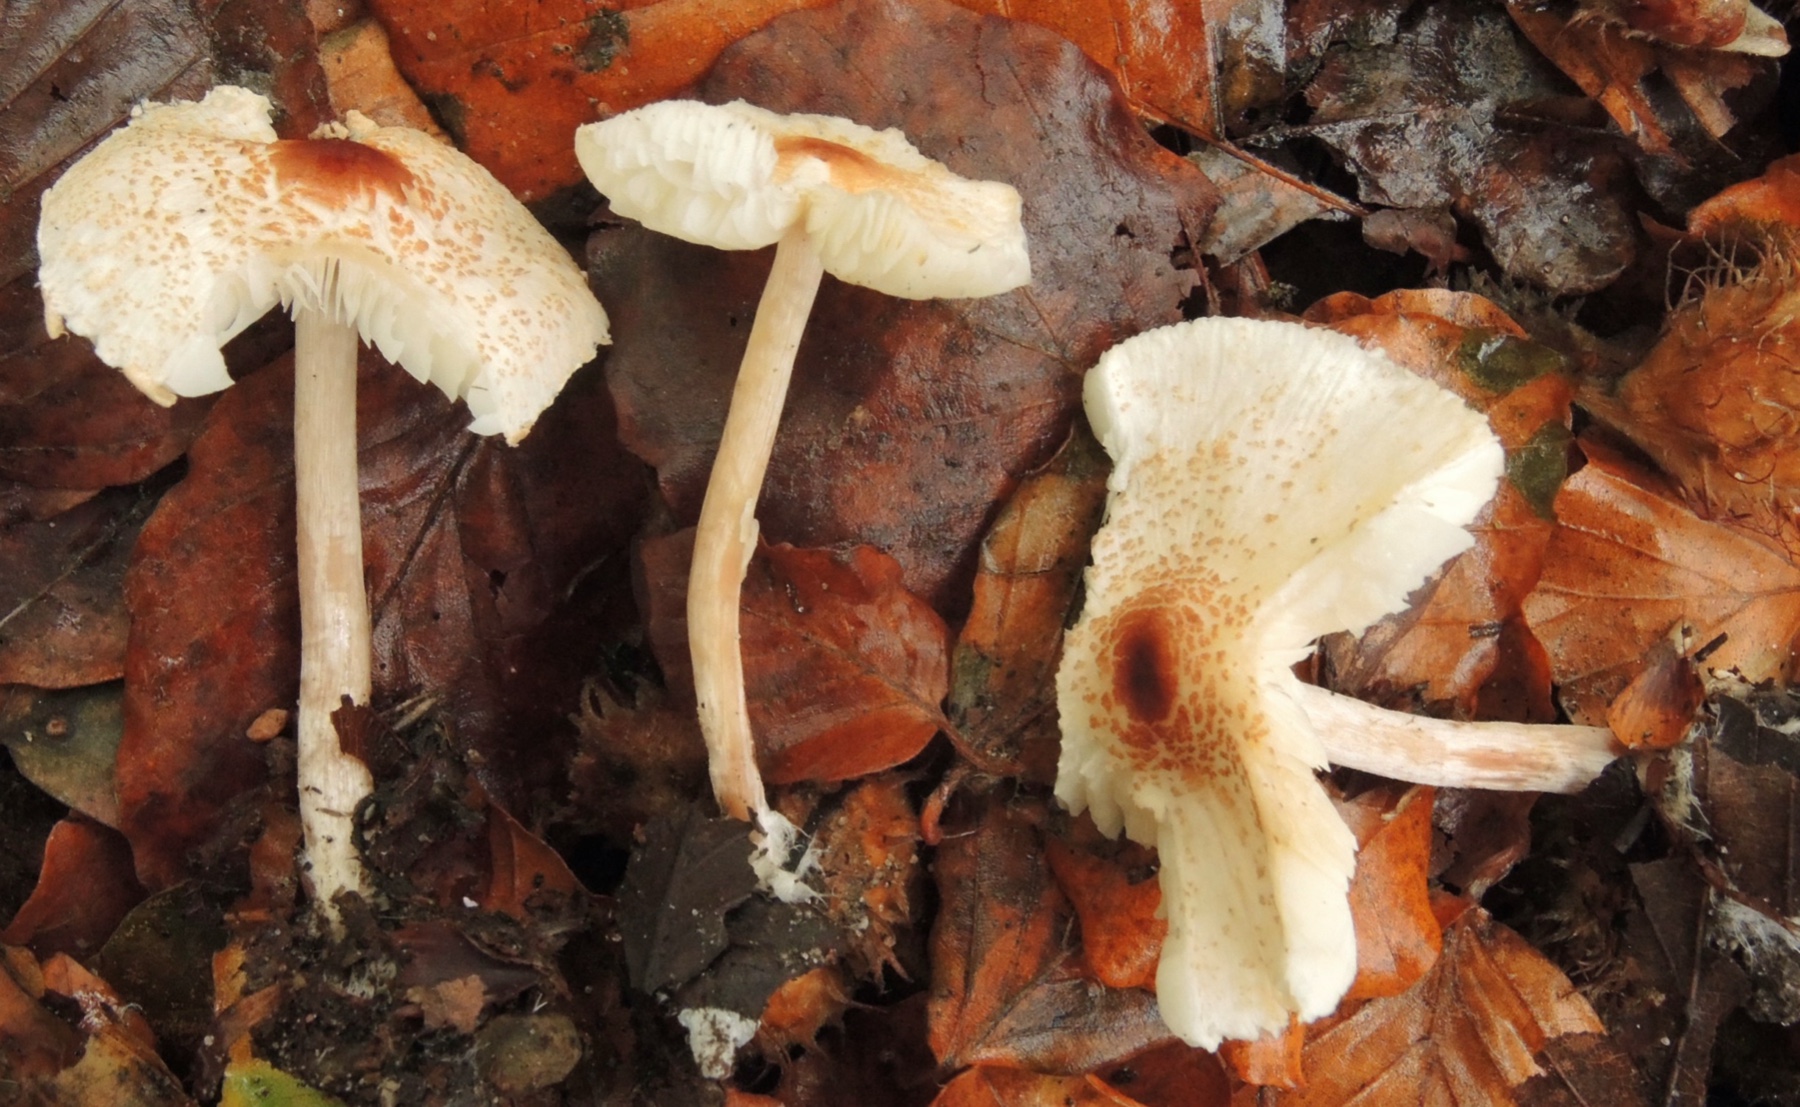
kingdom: Fungi
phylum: Basidiomycota
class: Agaricomycetes
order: Agaricales
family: Agaricaceae
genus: Lepiota
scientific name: Lepiota cristata
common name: stinkende parasolhat
